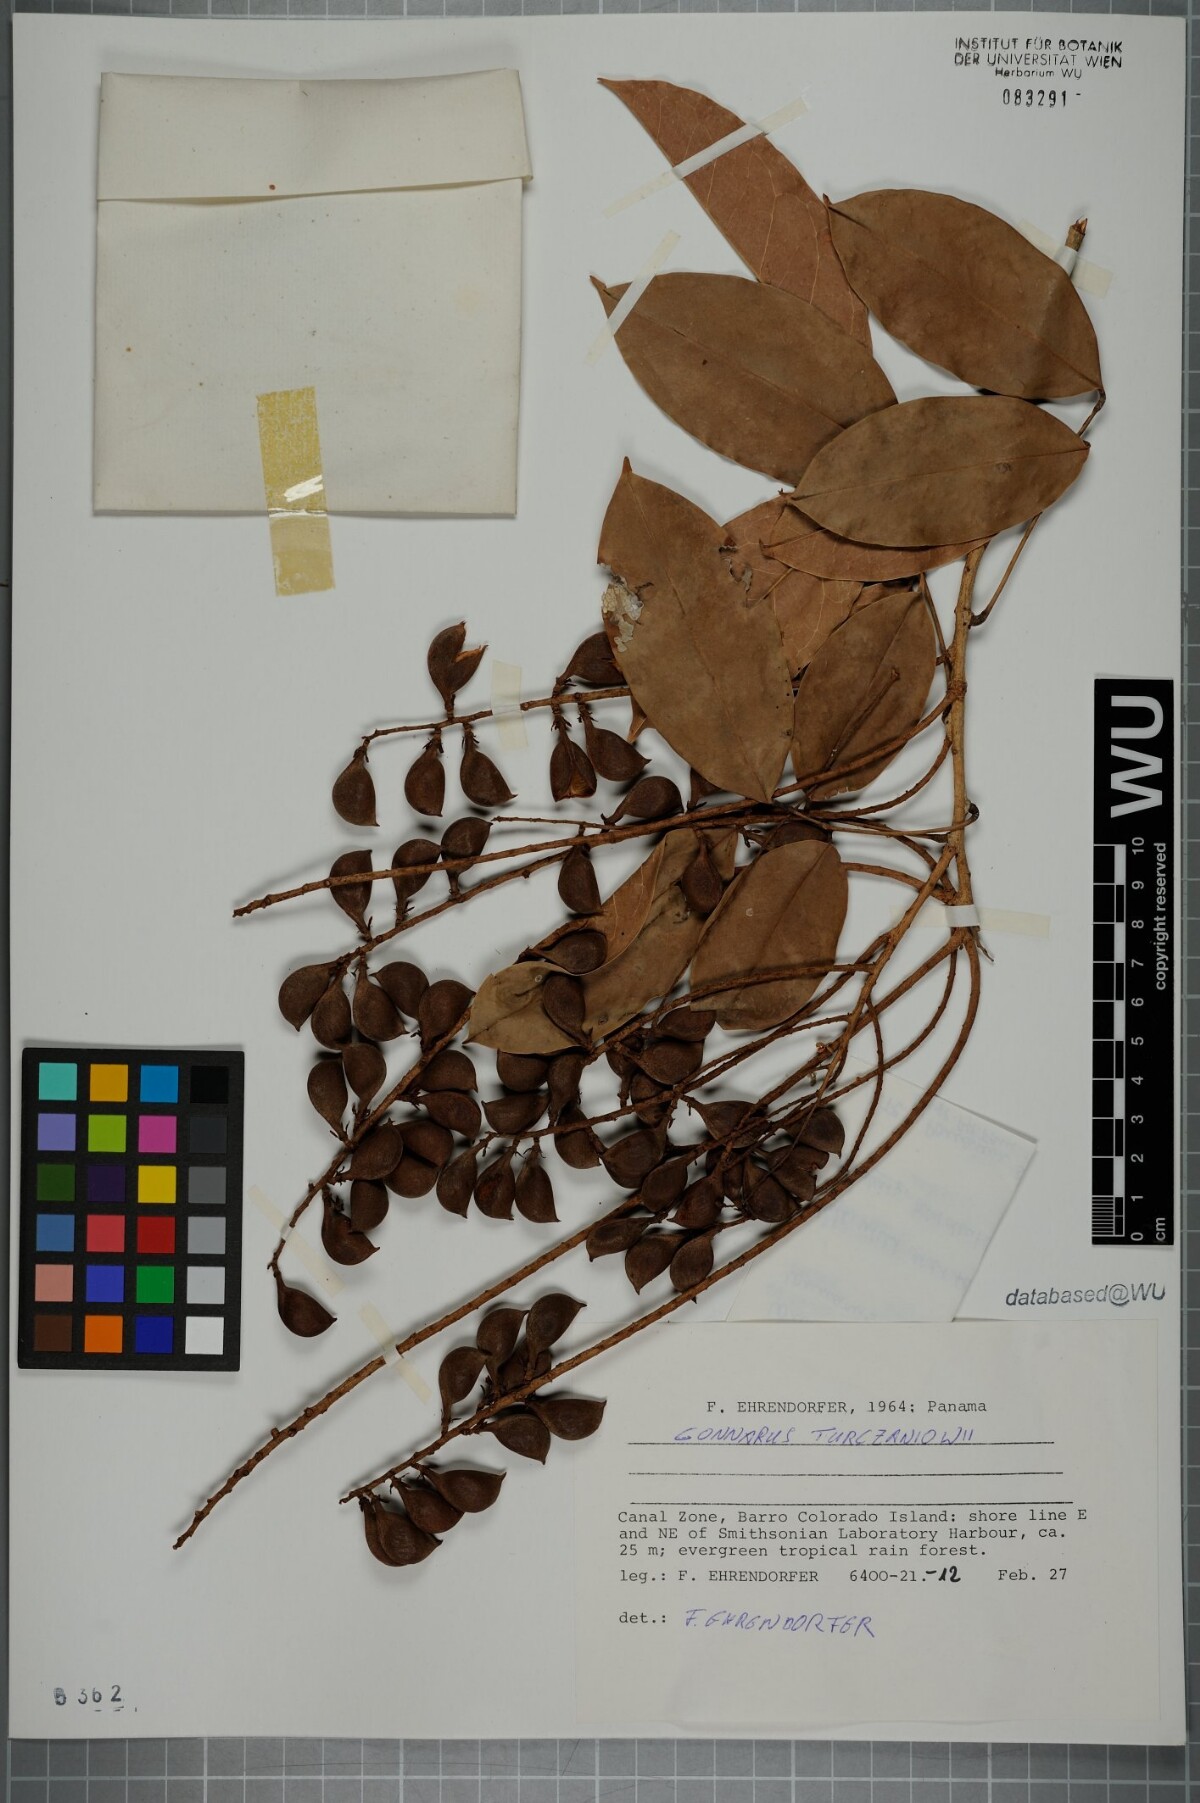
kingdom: Plantae
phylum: Tracheophyta
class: Magnoliopsida
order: Oxalidales
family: Connaraceae
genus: Connarus
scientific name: Connarus turczaninowii
